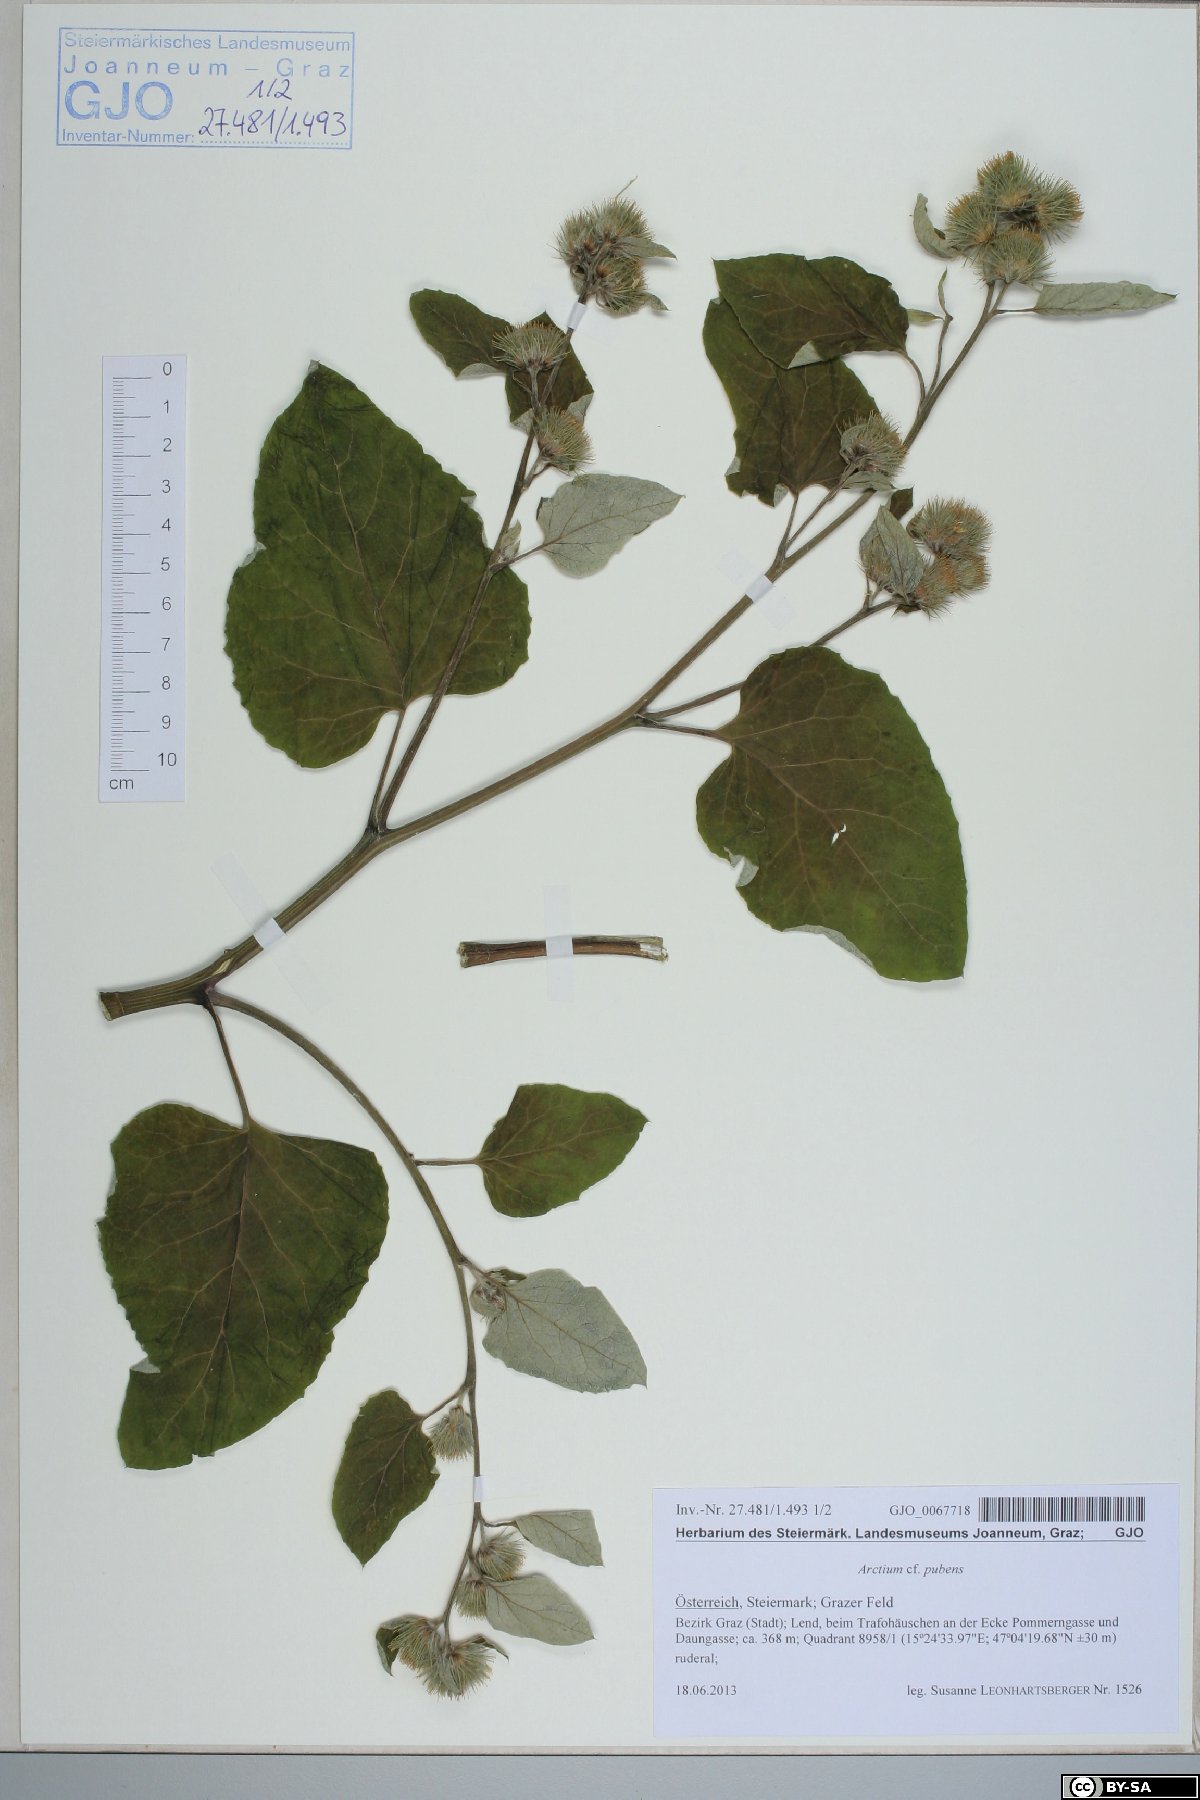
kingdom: Plantae
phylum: Tracheophyta
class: Magnoliopsida
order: Asterales
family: Asteraceae
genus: Arctium
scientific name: Arctium minus
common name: Lesser burdock
